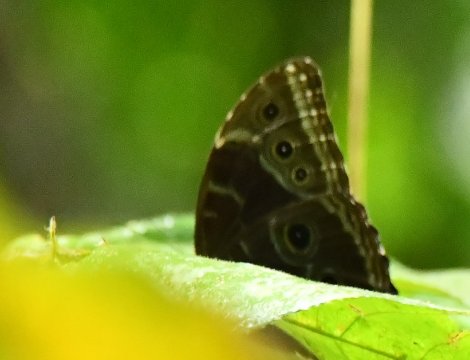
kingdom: Animalia
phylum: Arthropoda
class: Insecta
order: Lepidoptera
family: Nymphalidae
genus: Morpho
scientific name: Morpho helenor
